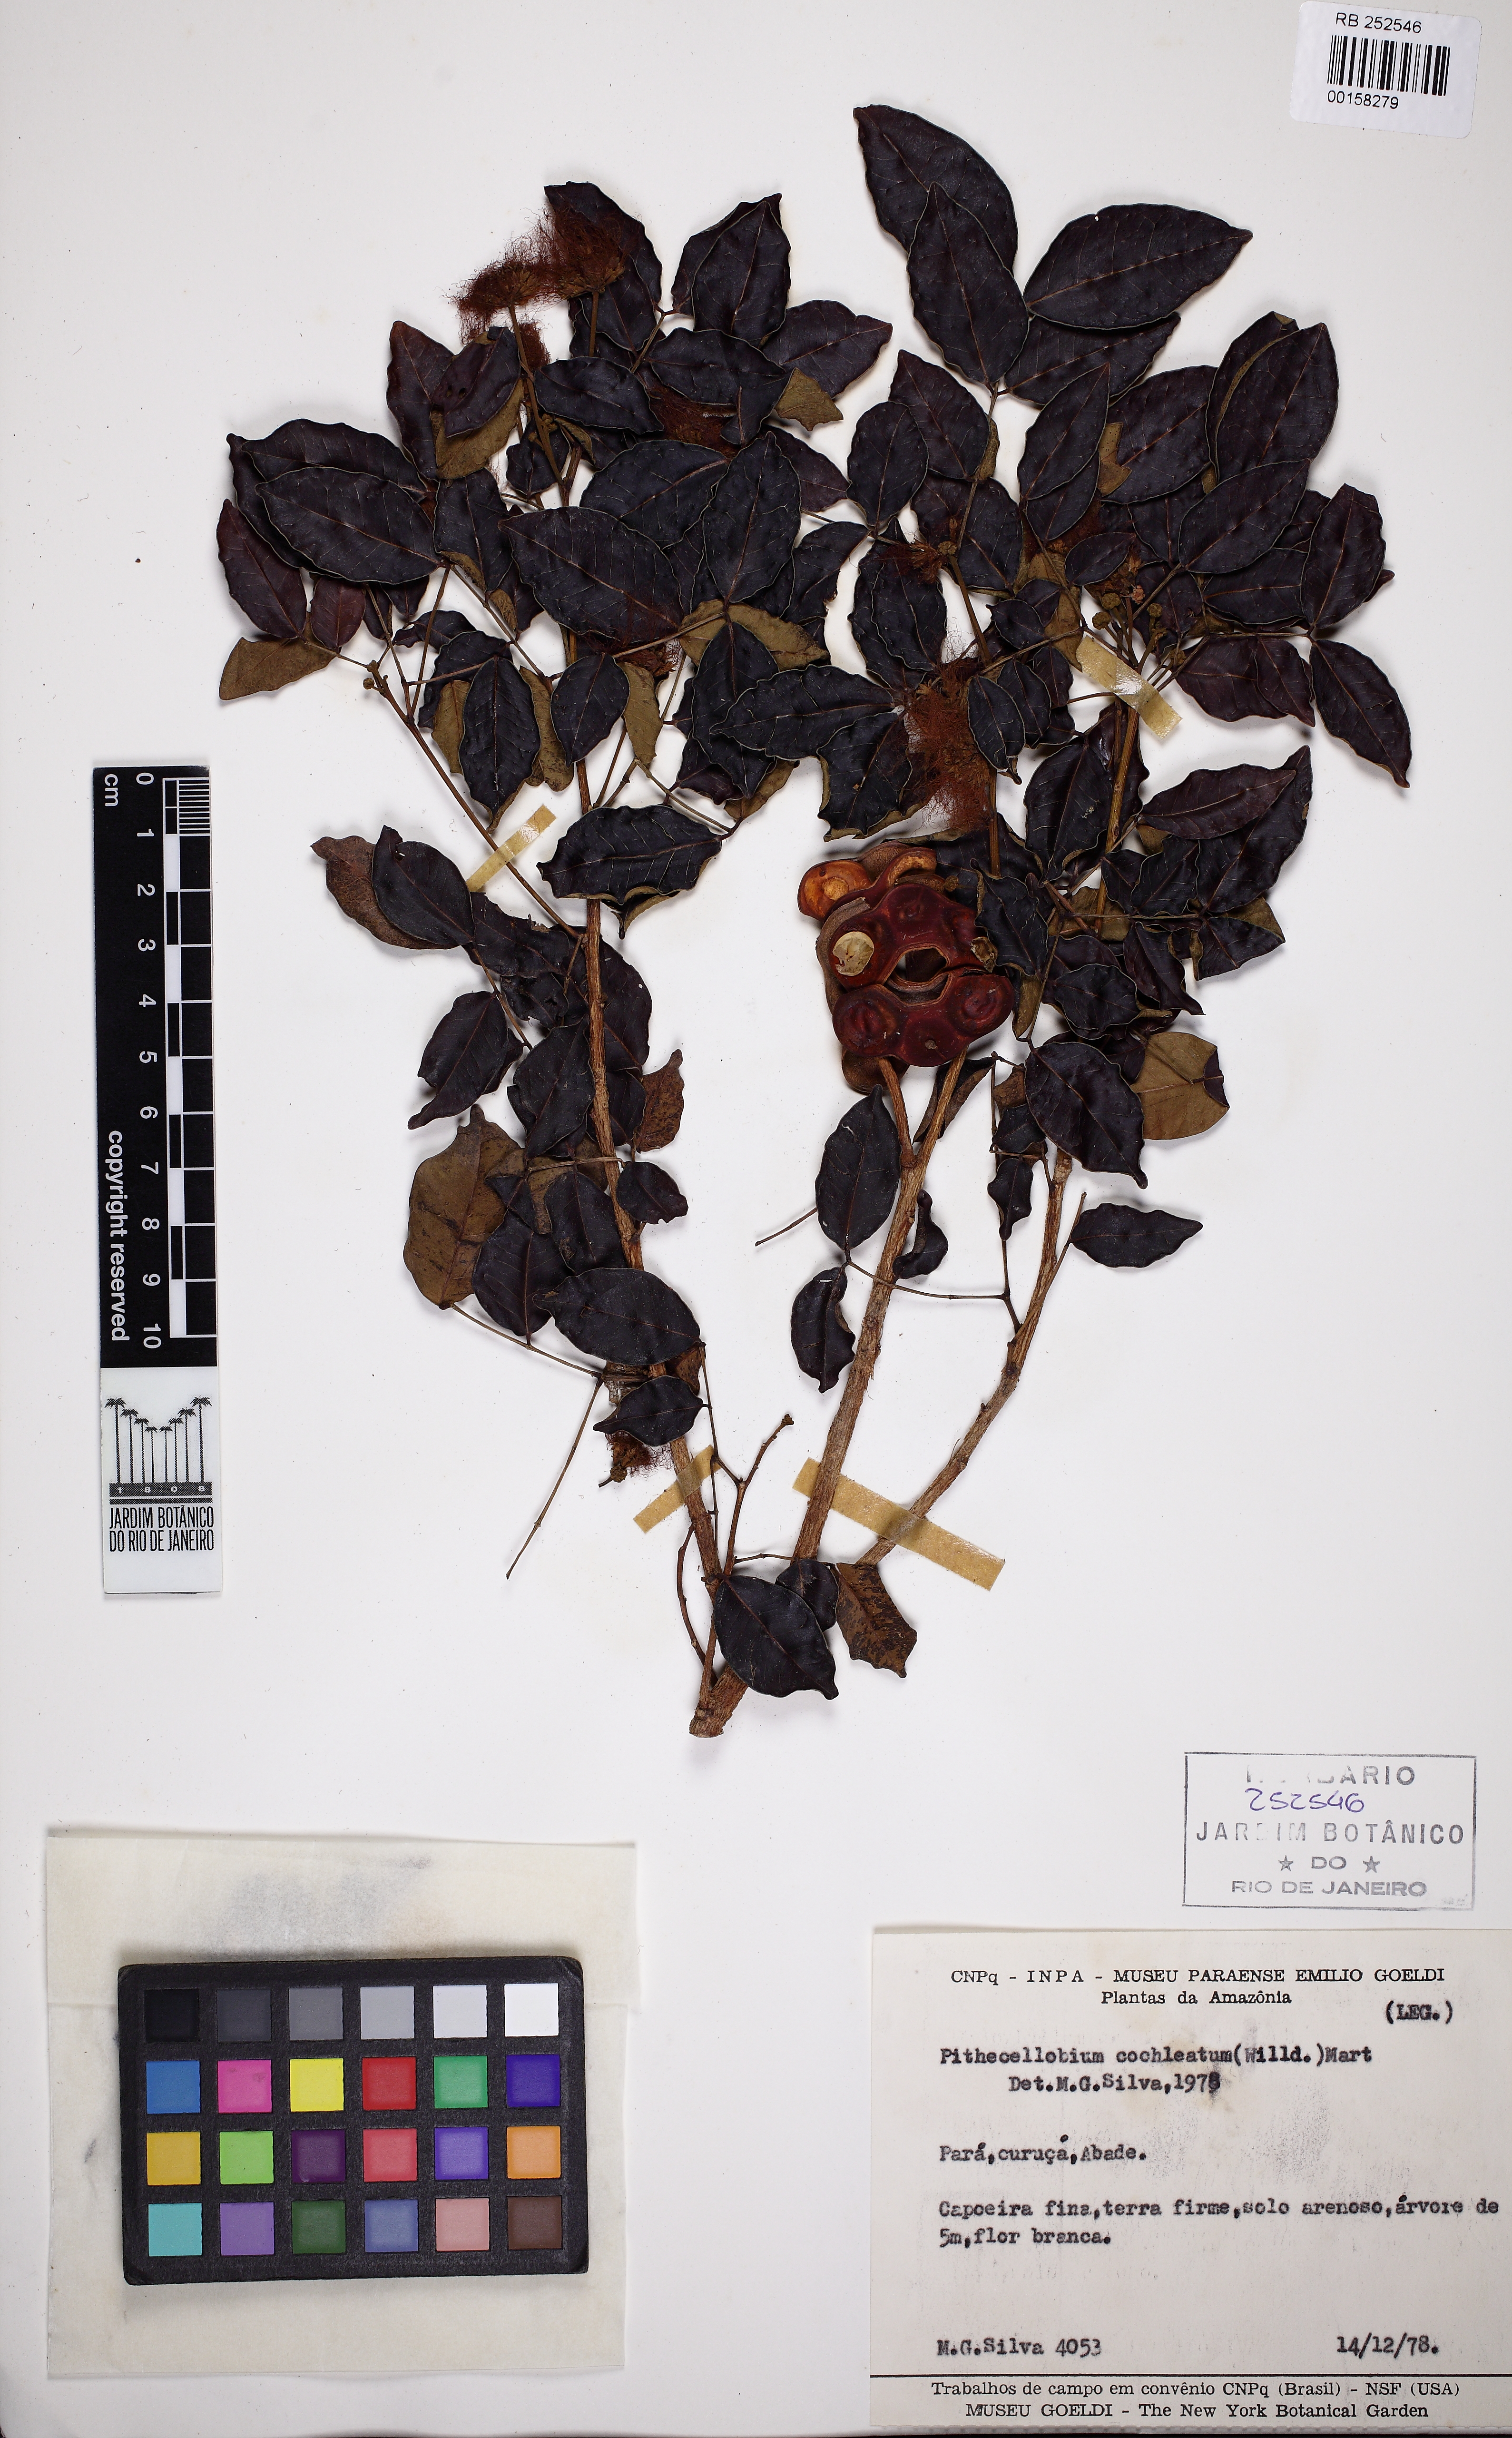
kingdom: Plantae
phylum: Tracheophyta
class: Magnoliopsida
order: Fabales
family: Fabaceae
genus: Jupunba
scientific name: Jupunba cochleata
